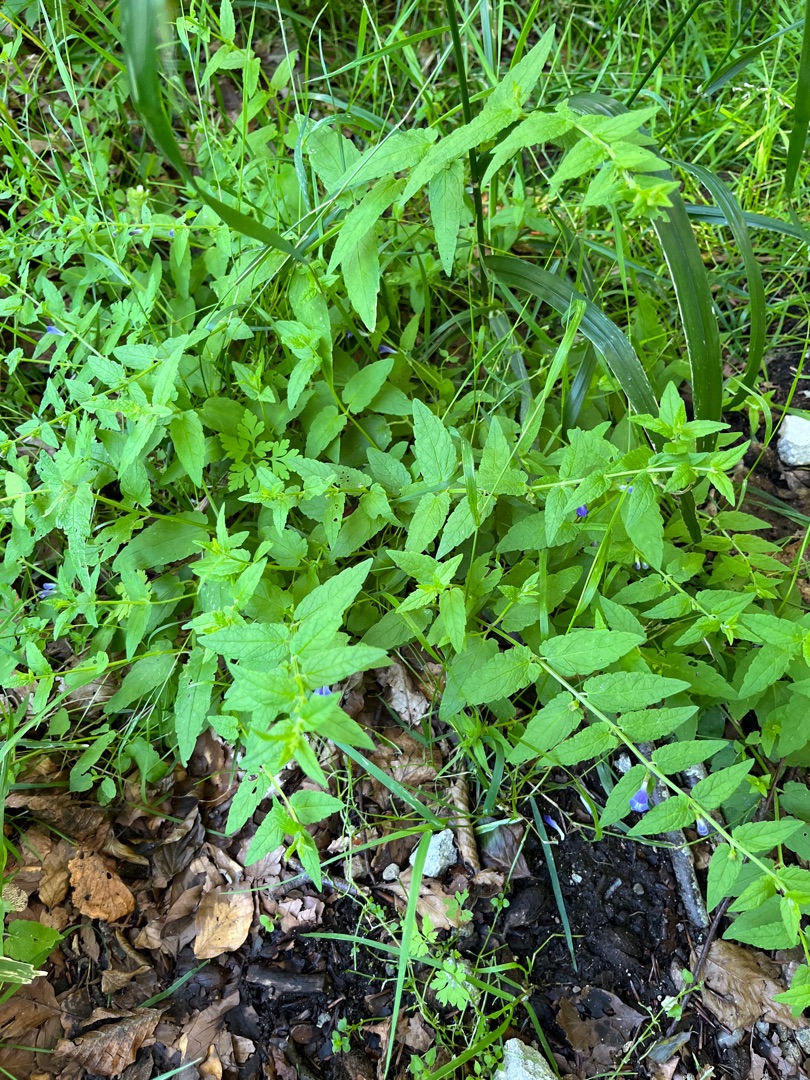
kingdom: Plantae
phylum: Tracheophyta
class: Magnoliopsida
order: Lamiales
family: Lamiaceae
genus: Scutellaria
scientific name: Scutellaria galericulata
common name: Almindelig skjolddrager
